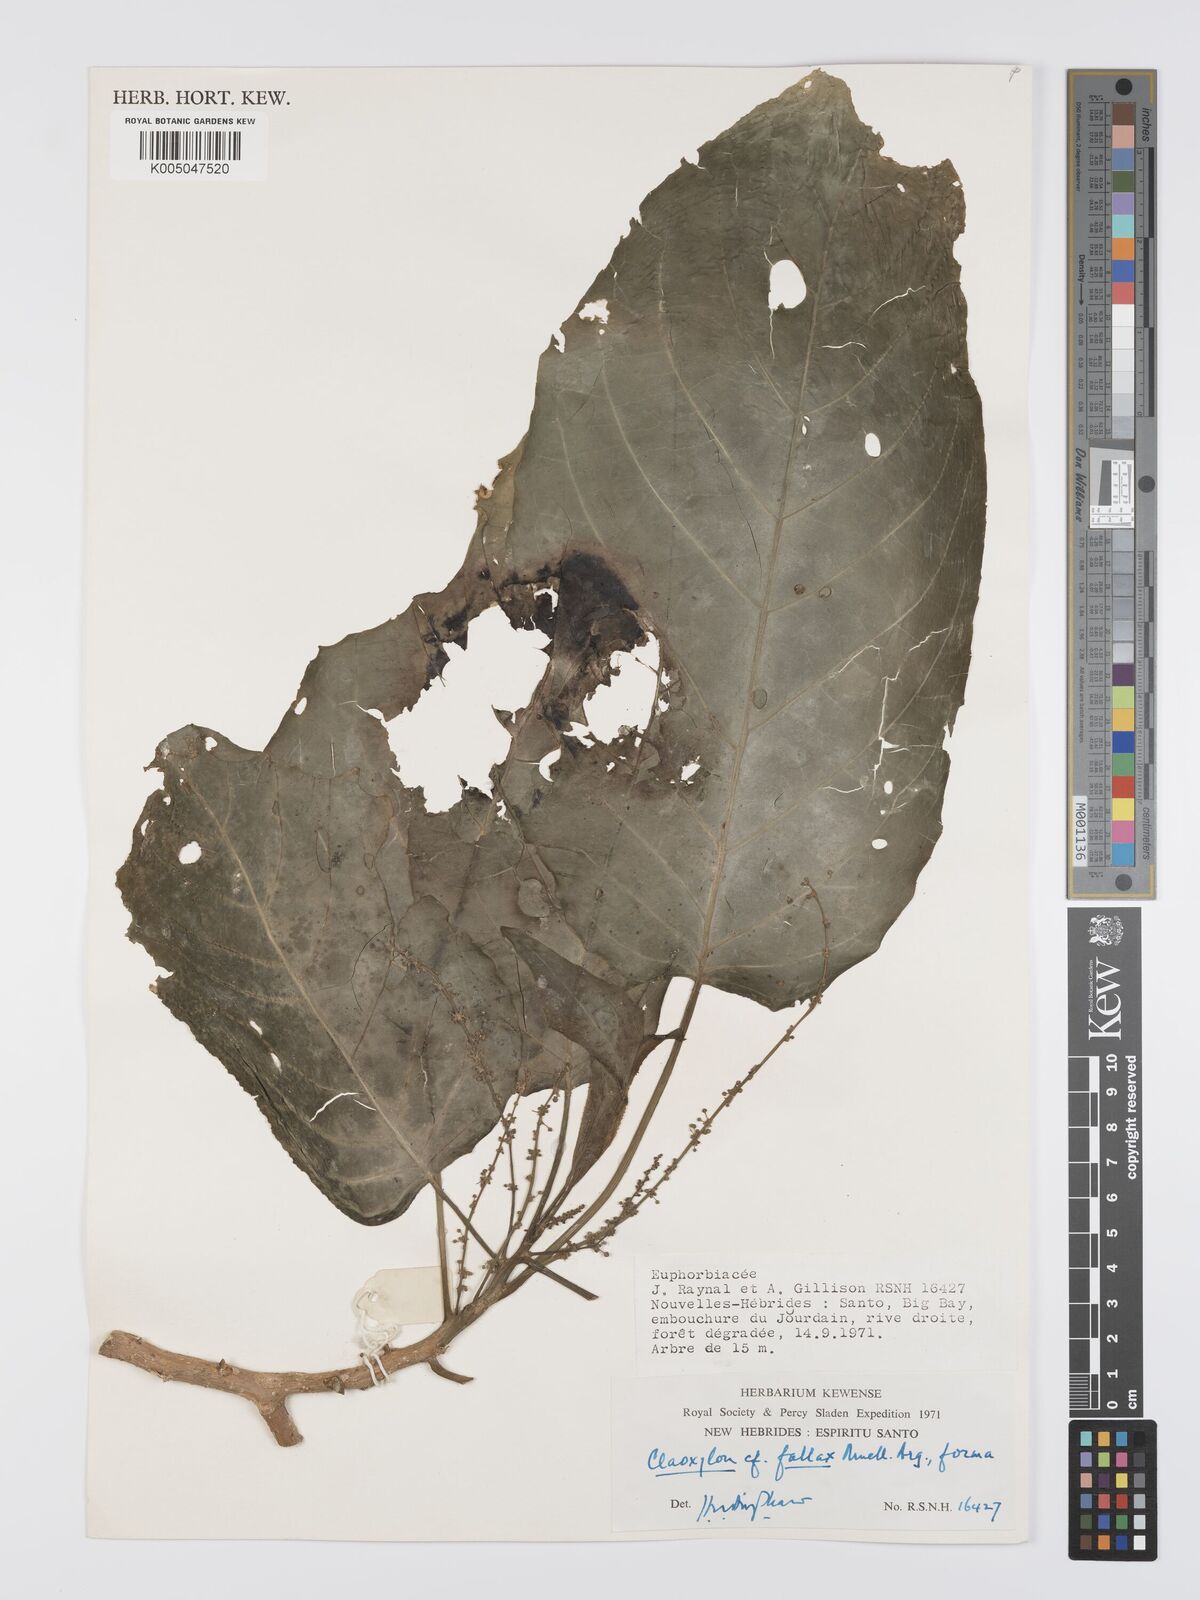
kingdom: Plantae
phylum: Tracheophyta
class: Magnoliopsida
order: Malpighiales
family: Euphorbiaceae
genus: Claoxylon
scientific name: Claoxylon fallax
